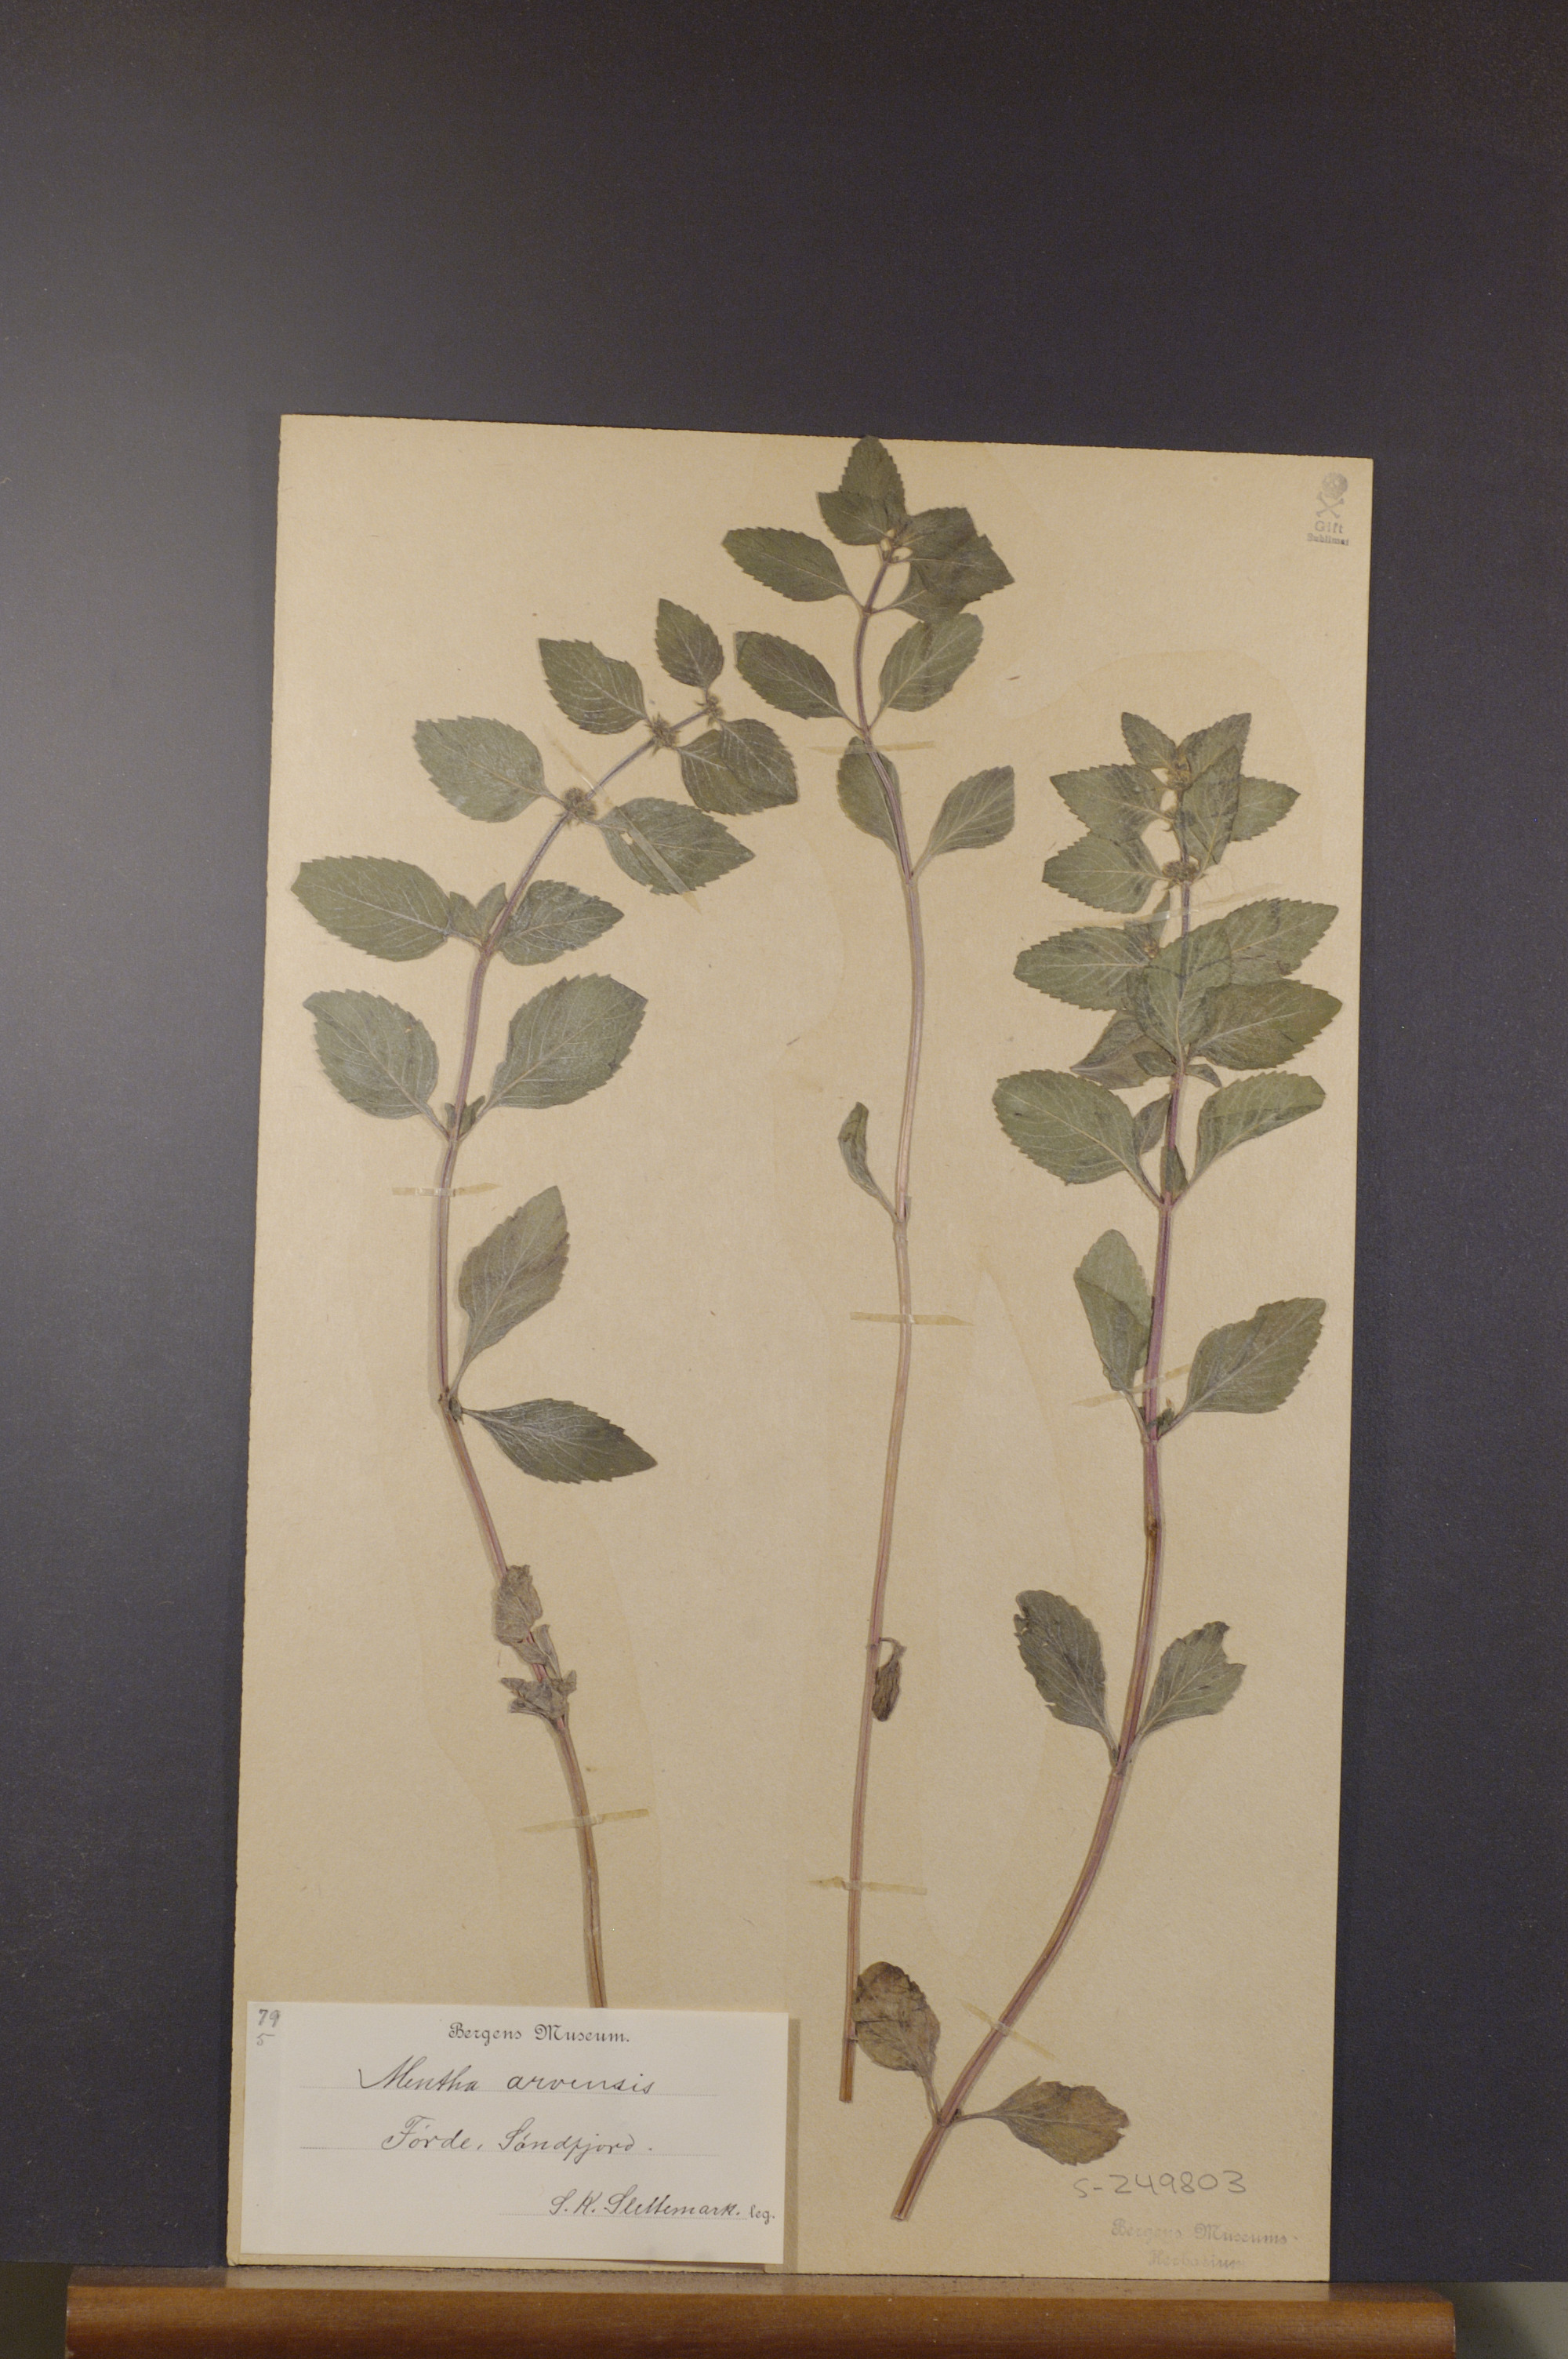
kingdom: Plantae
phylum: Tracheophyta
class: Magnoliopsida
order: Lamiales
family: Lamiaceae
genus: Mentha
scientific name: Mentha arvensis
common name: Corn mint
